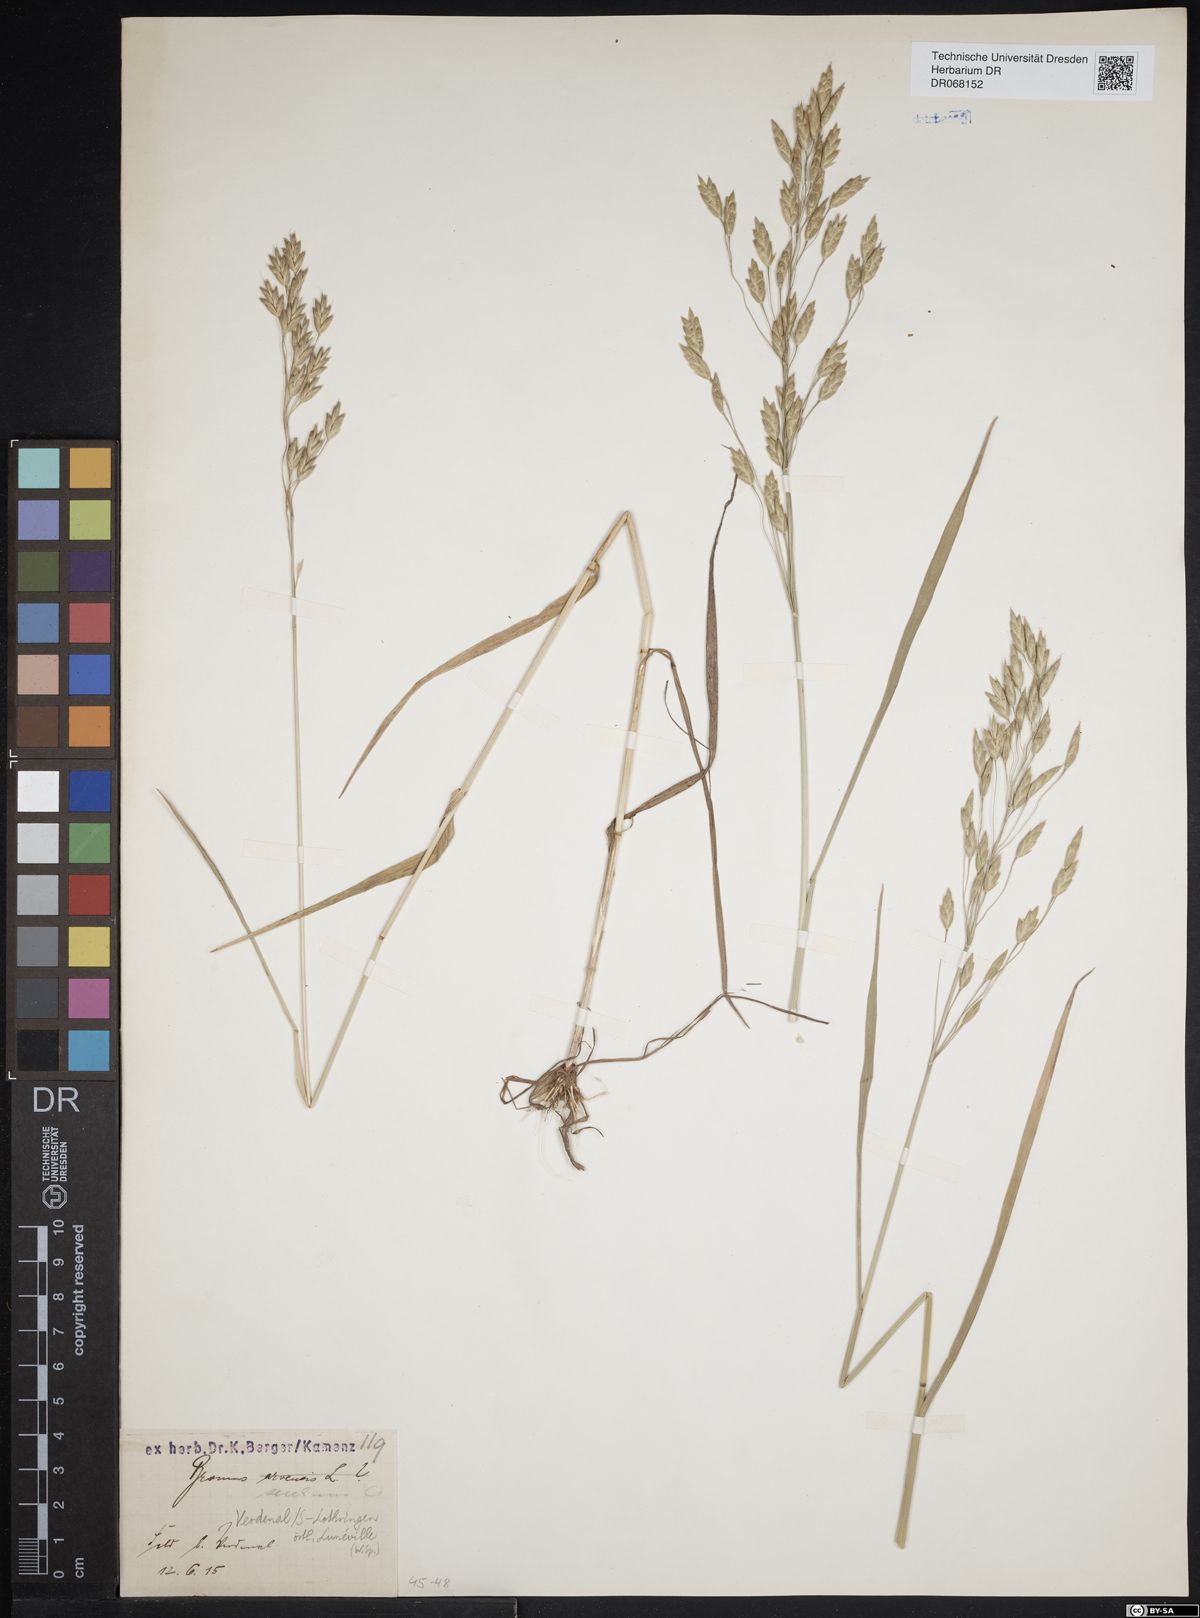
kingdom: Plantae
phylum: Tracheophyta
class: Liliopsida
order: Poales
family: Poaceae
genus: Bromus
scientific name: Bromus secalinus
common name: Rye brome
